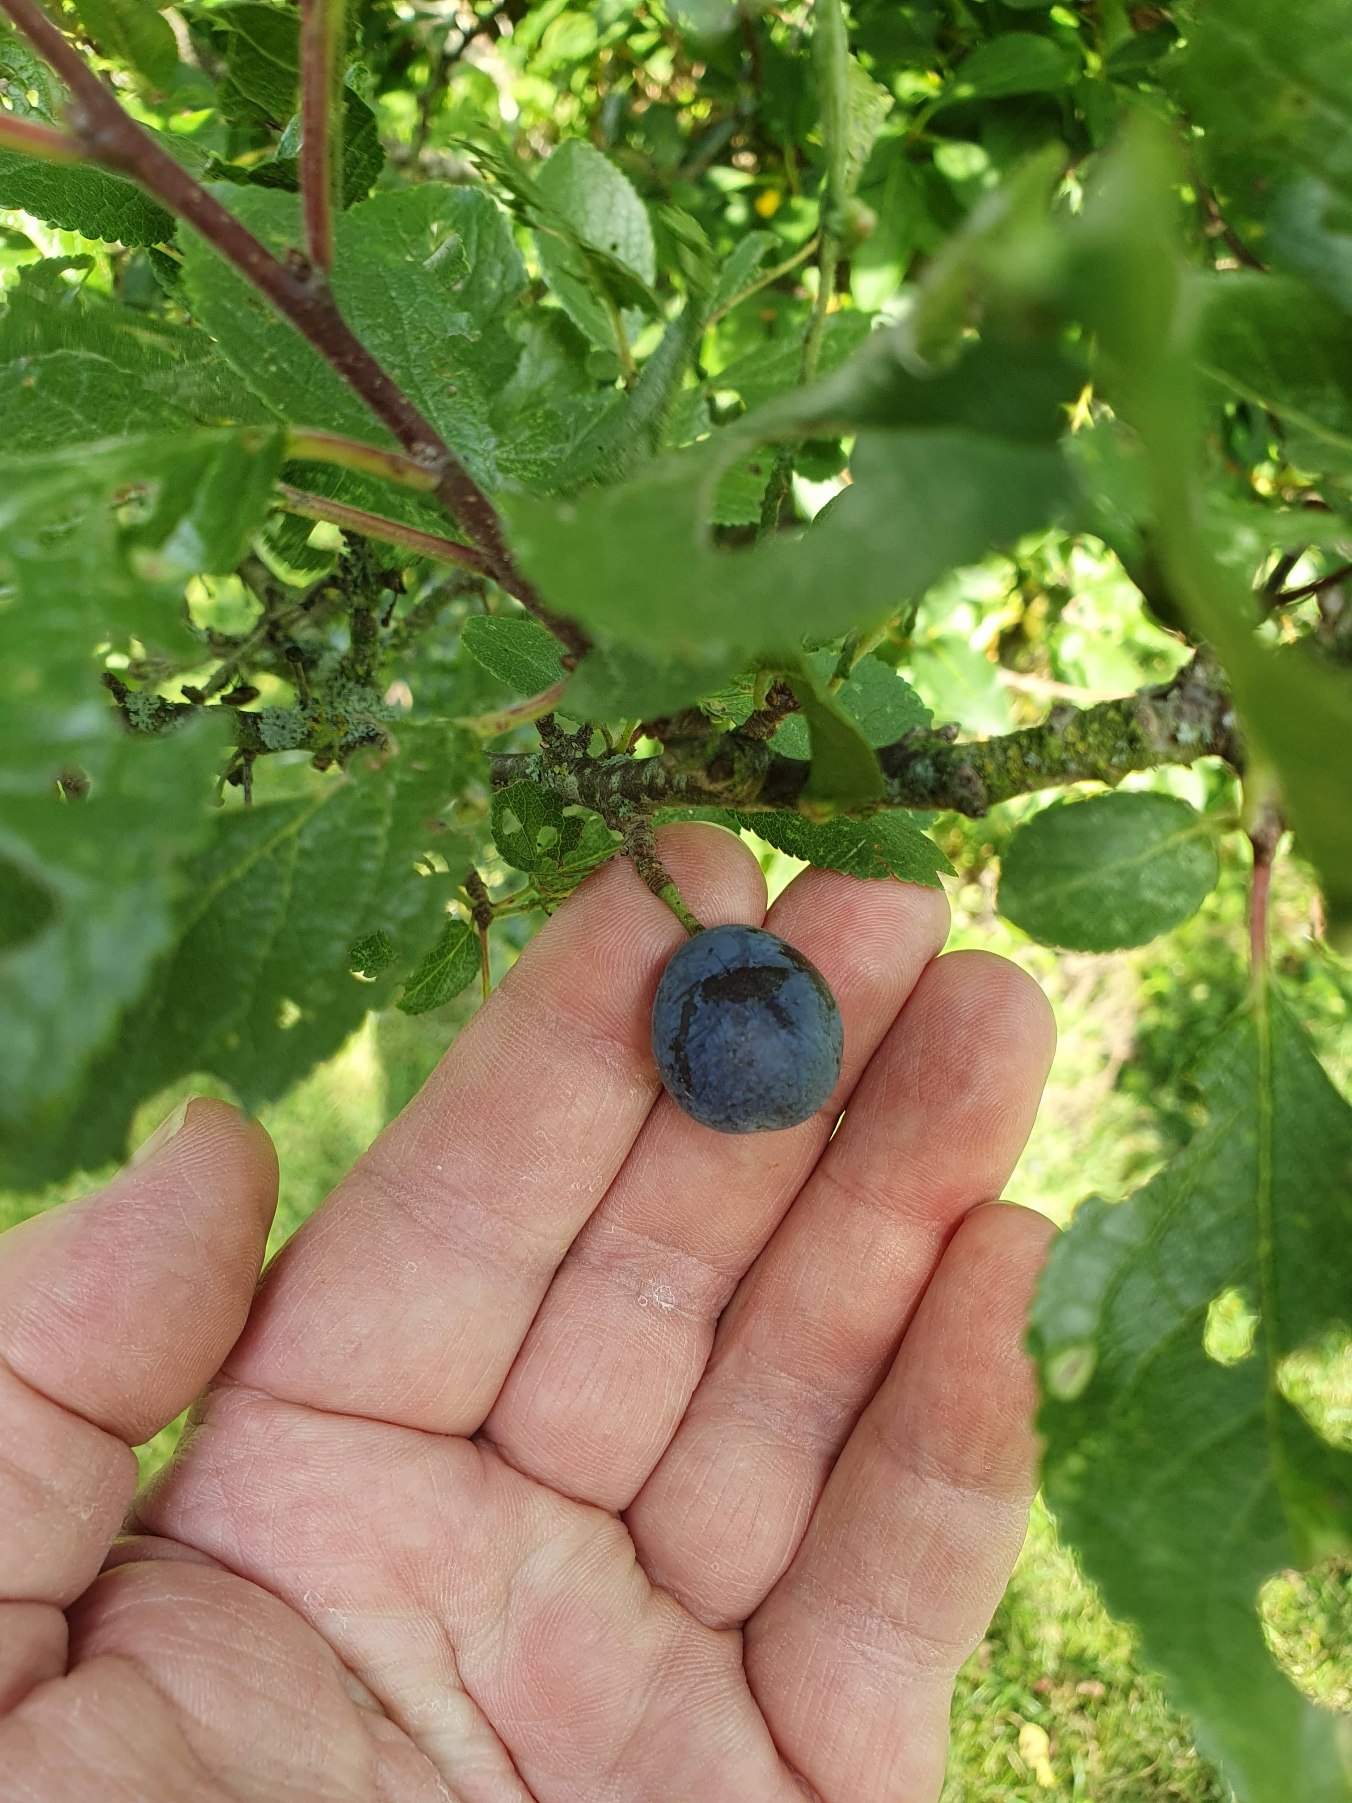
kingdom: Plantae
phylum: Tracheophyta
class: Magnoliopsida
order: Rosales
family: Rosaceae
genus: Prunus
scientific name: Prunus spinosa
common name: Slåen
